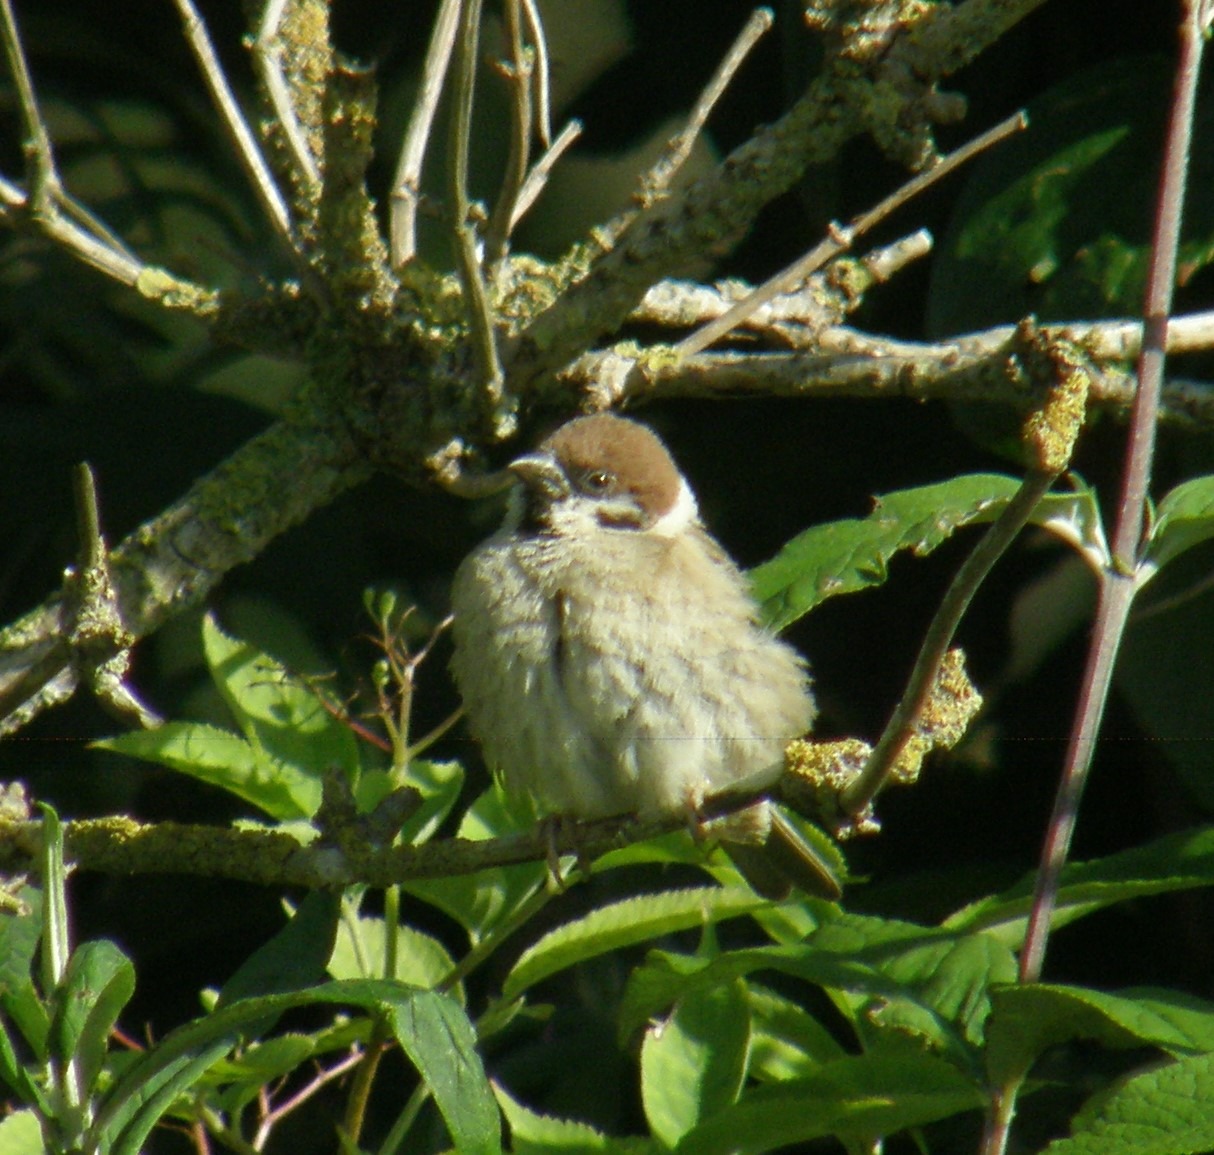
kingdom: Animalia
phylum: Chordata
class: Aves
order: Passeriformes
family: Passeridae
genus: Passer
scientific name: Passer montanus
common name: Skovspurv
